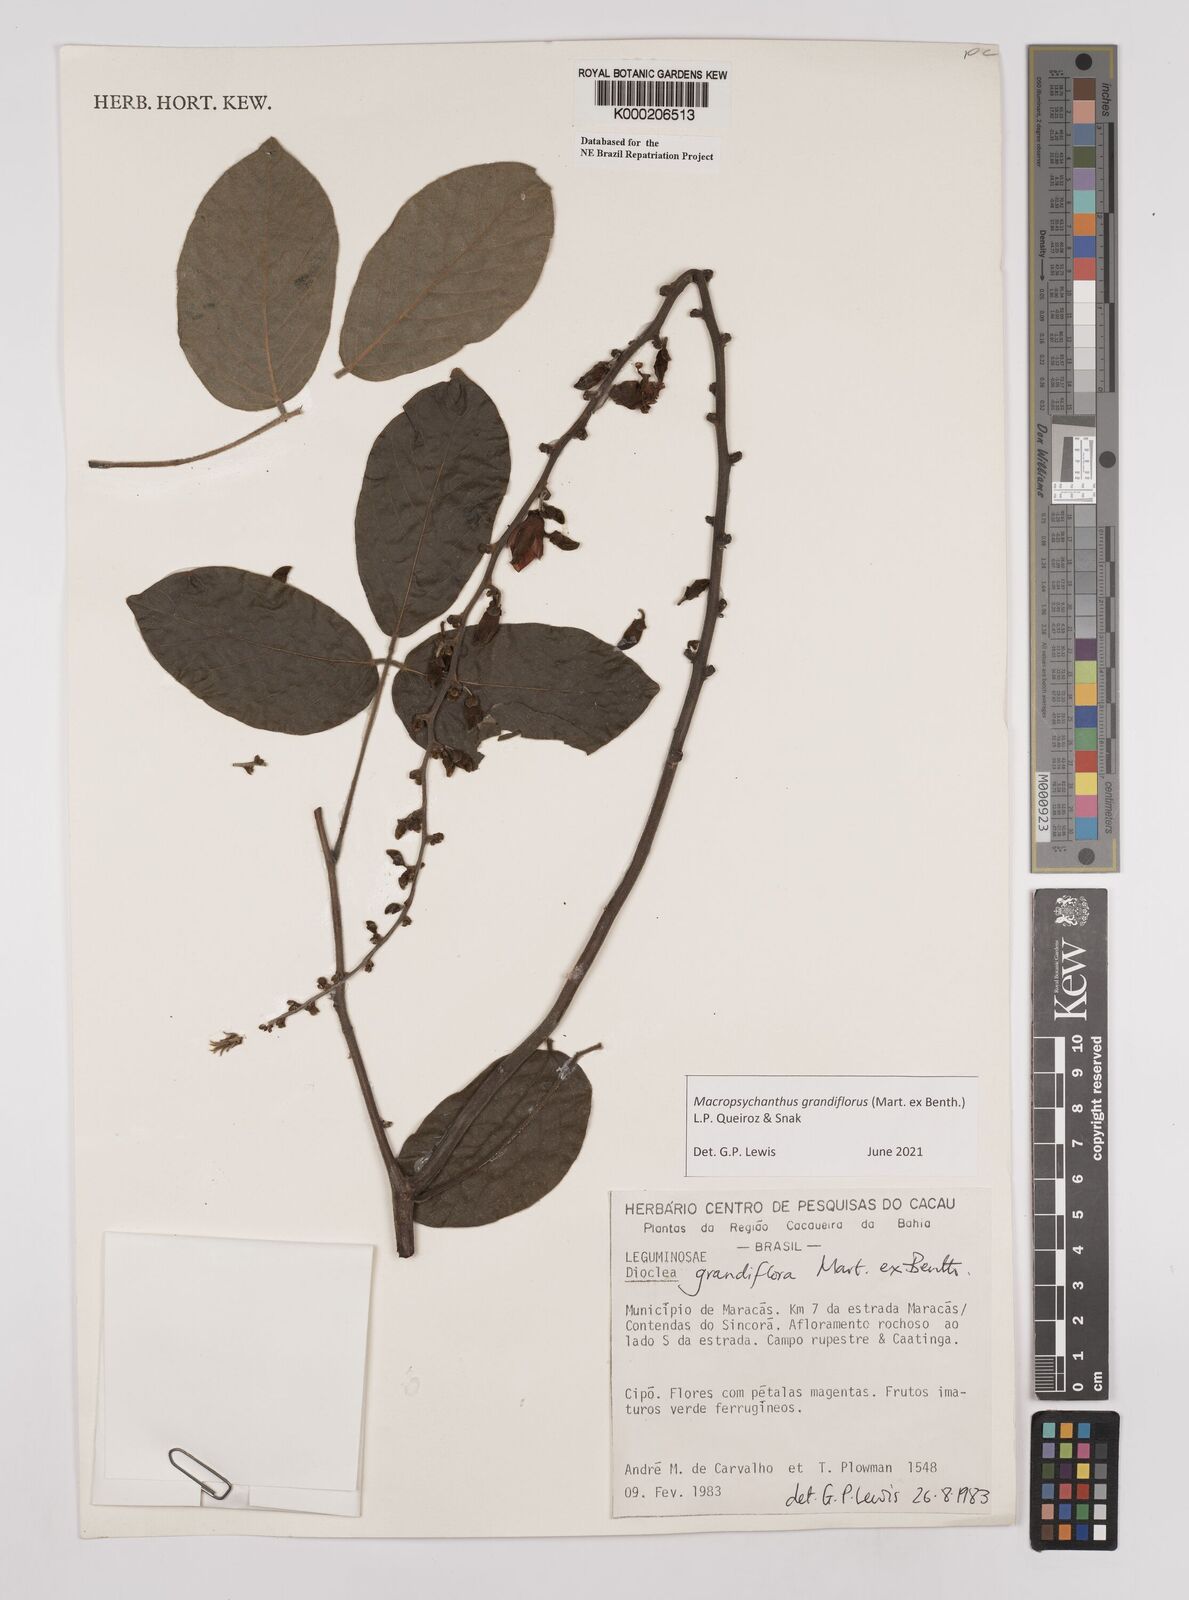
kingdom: Plantae
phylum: Tracheophyta
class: Magnoliopsida
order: Fabales
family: Fabaceae
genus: Macropsychanthus
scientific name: Macropsychanthus grandiflorus
